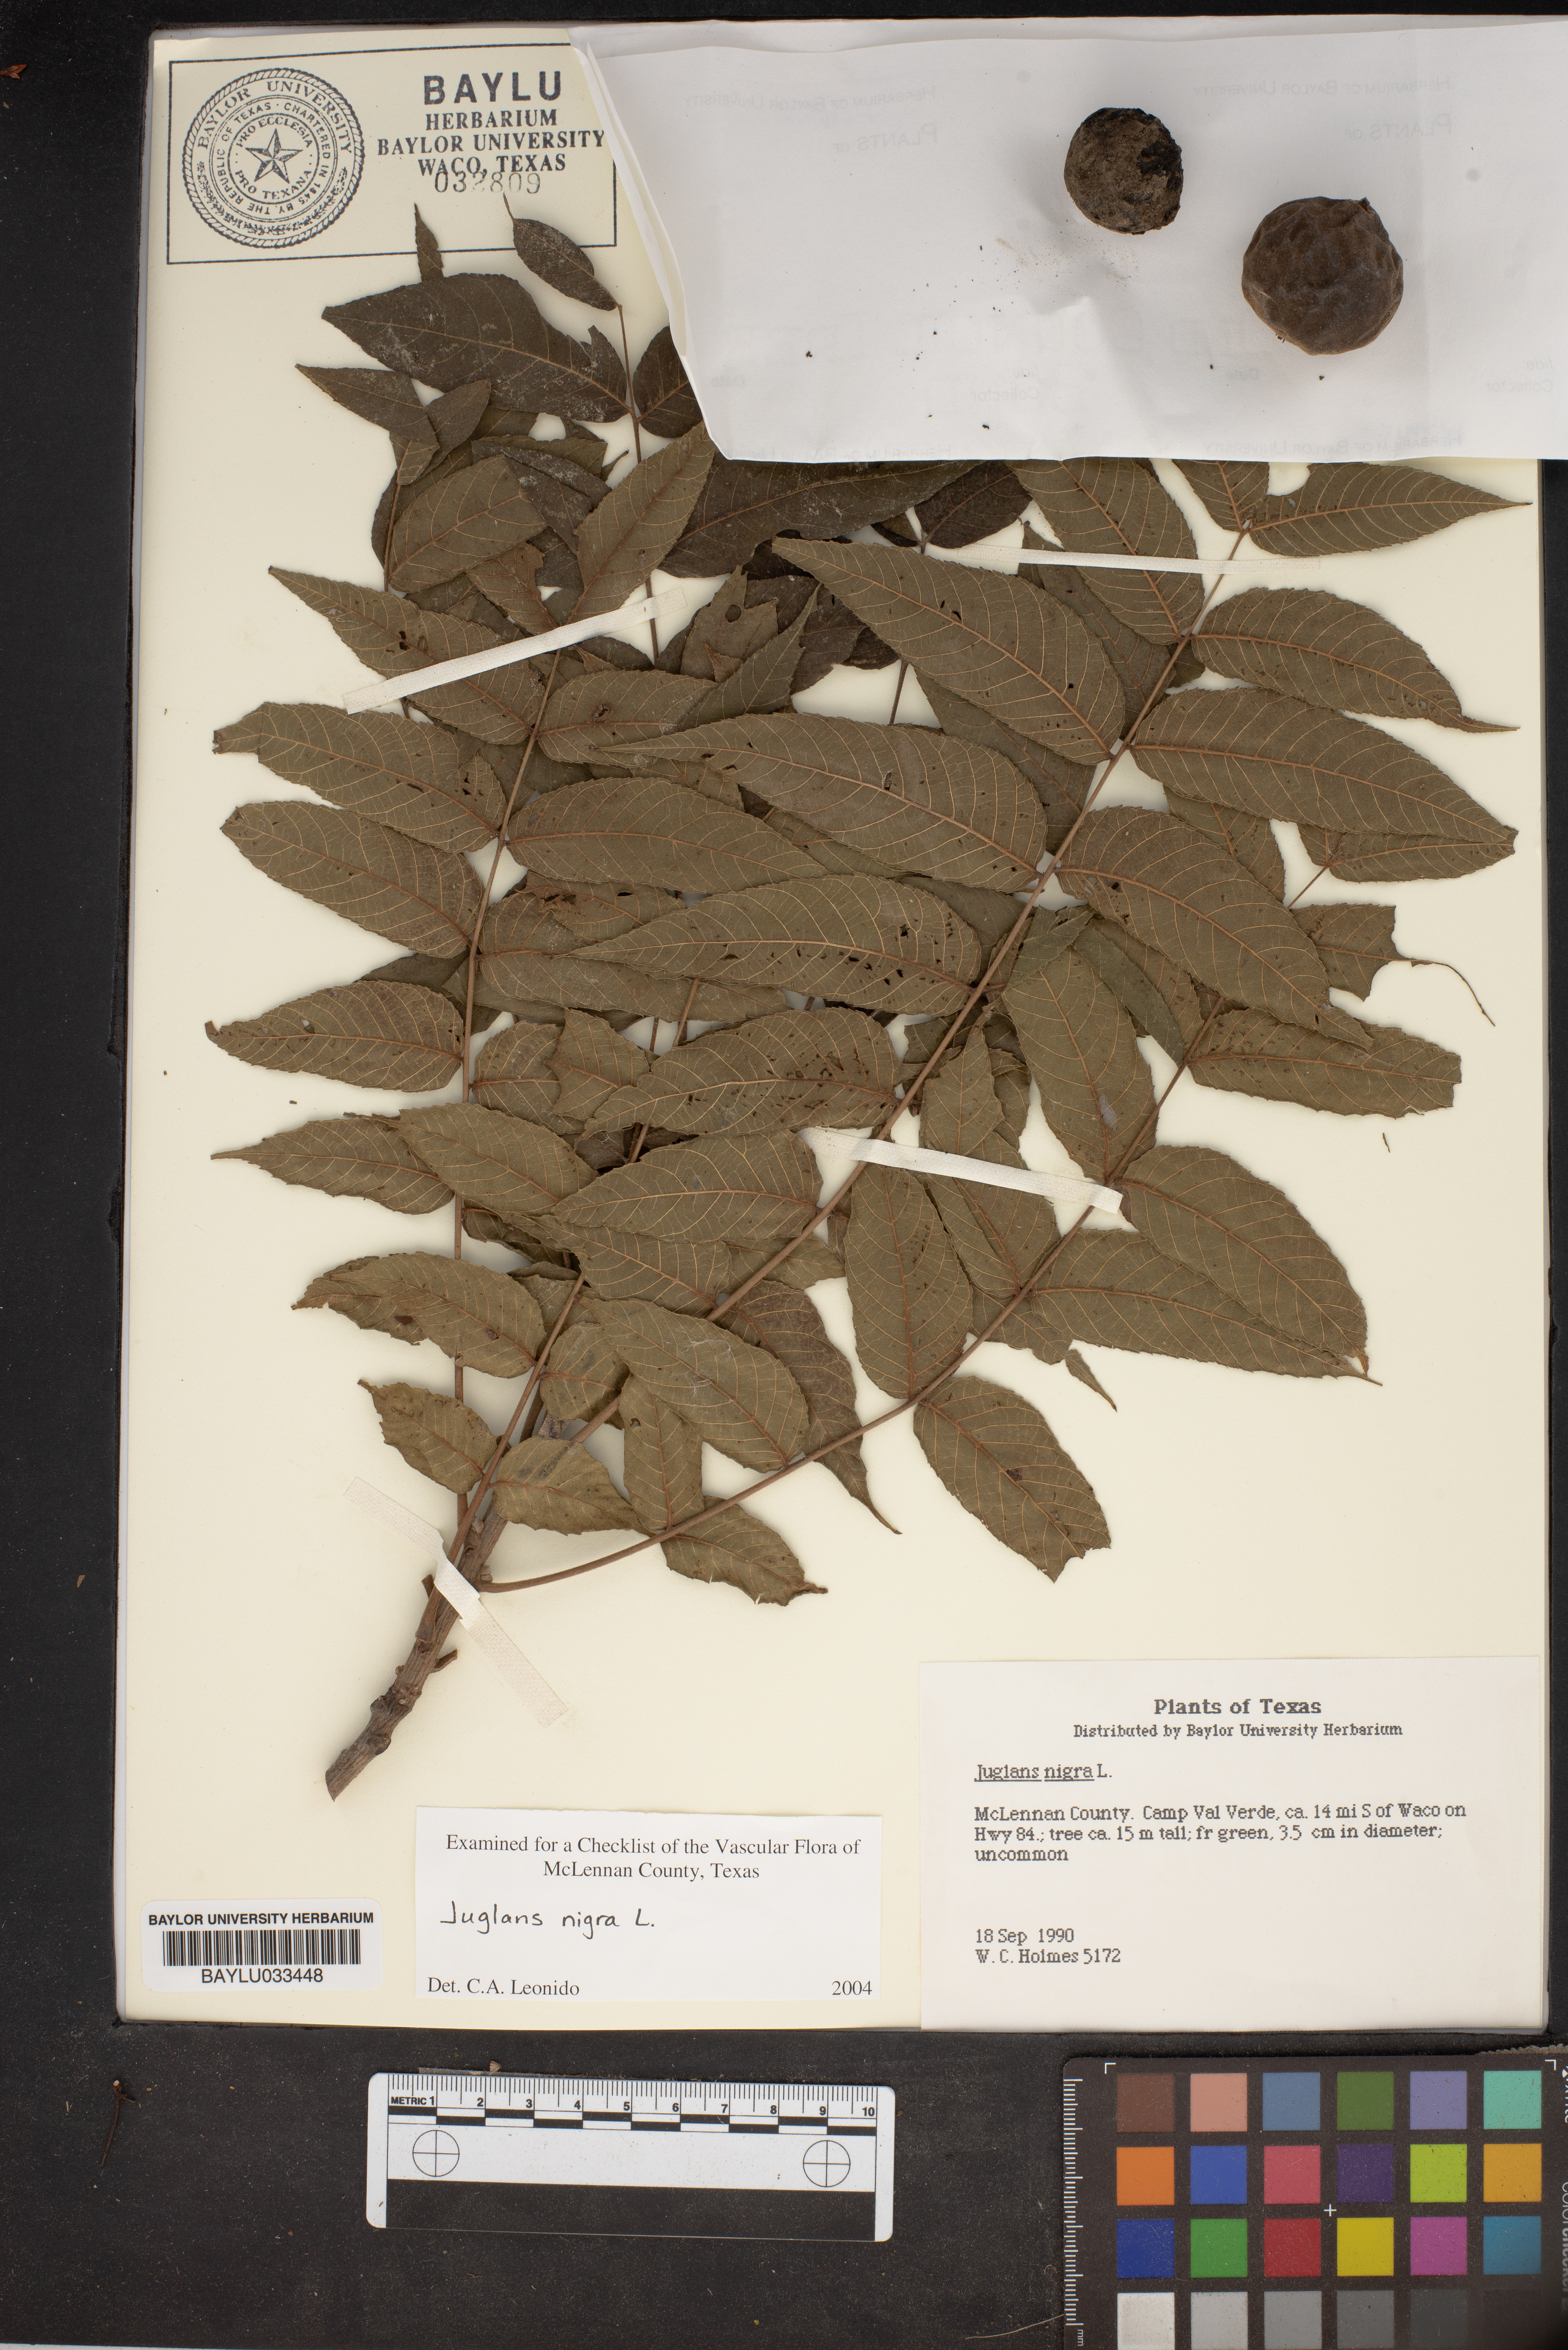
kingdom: Plantae
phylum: Tracheophyta
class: Magnoliopsida
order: Fagales
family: Juglandaceae
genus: Juglans
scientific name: Juglans nigra
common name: Black walnut
